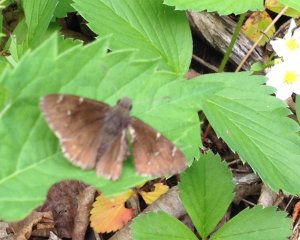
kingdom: Animalia
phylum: Arthropoda
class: Insecta
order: Lepidoptera
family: Hesperiidae
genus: Autochton
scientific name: Autochton
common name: Northern Cloudywing
